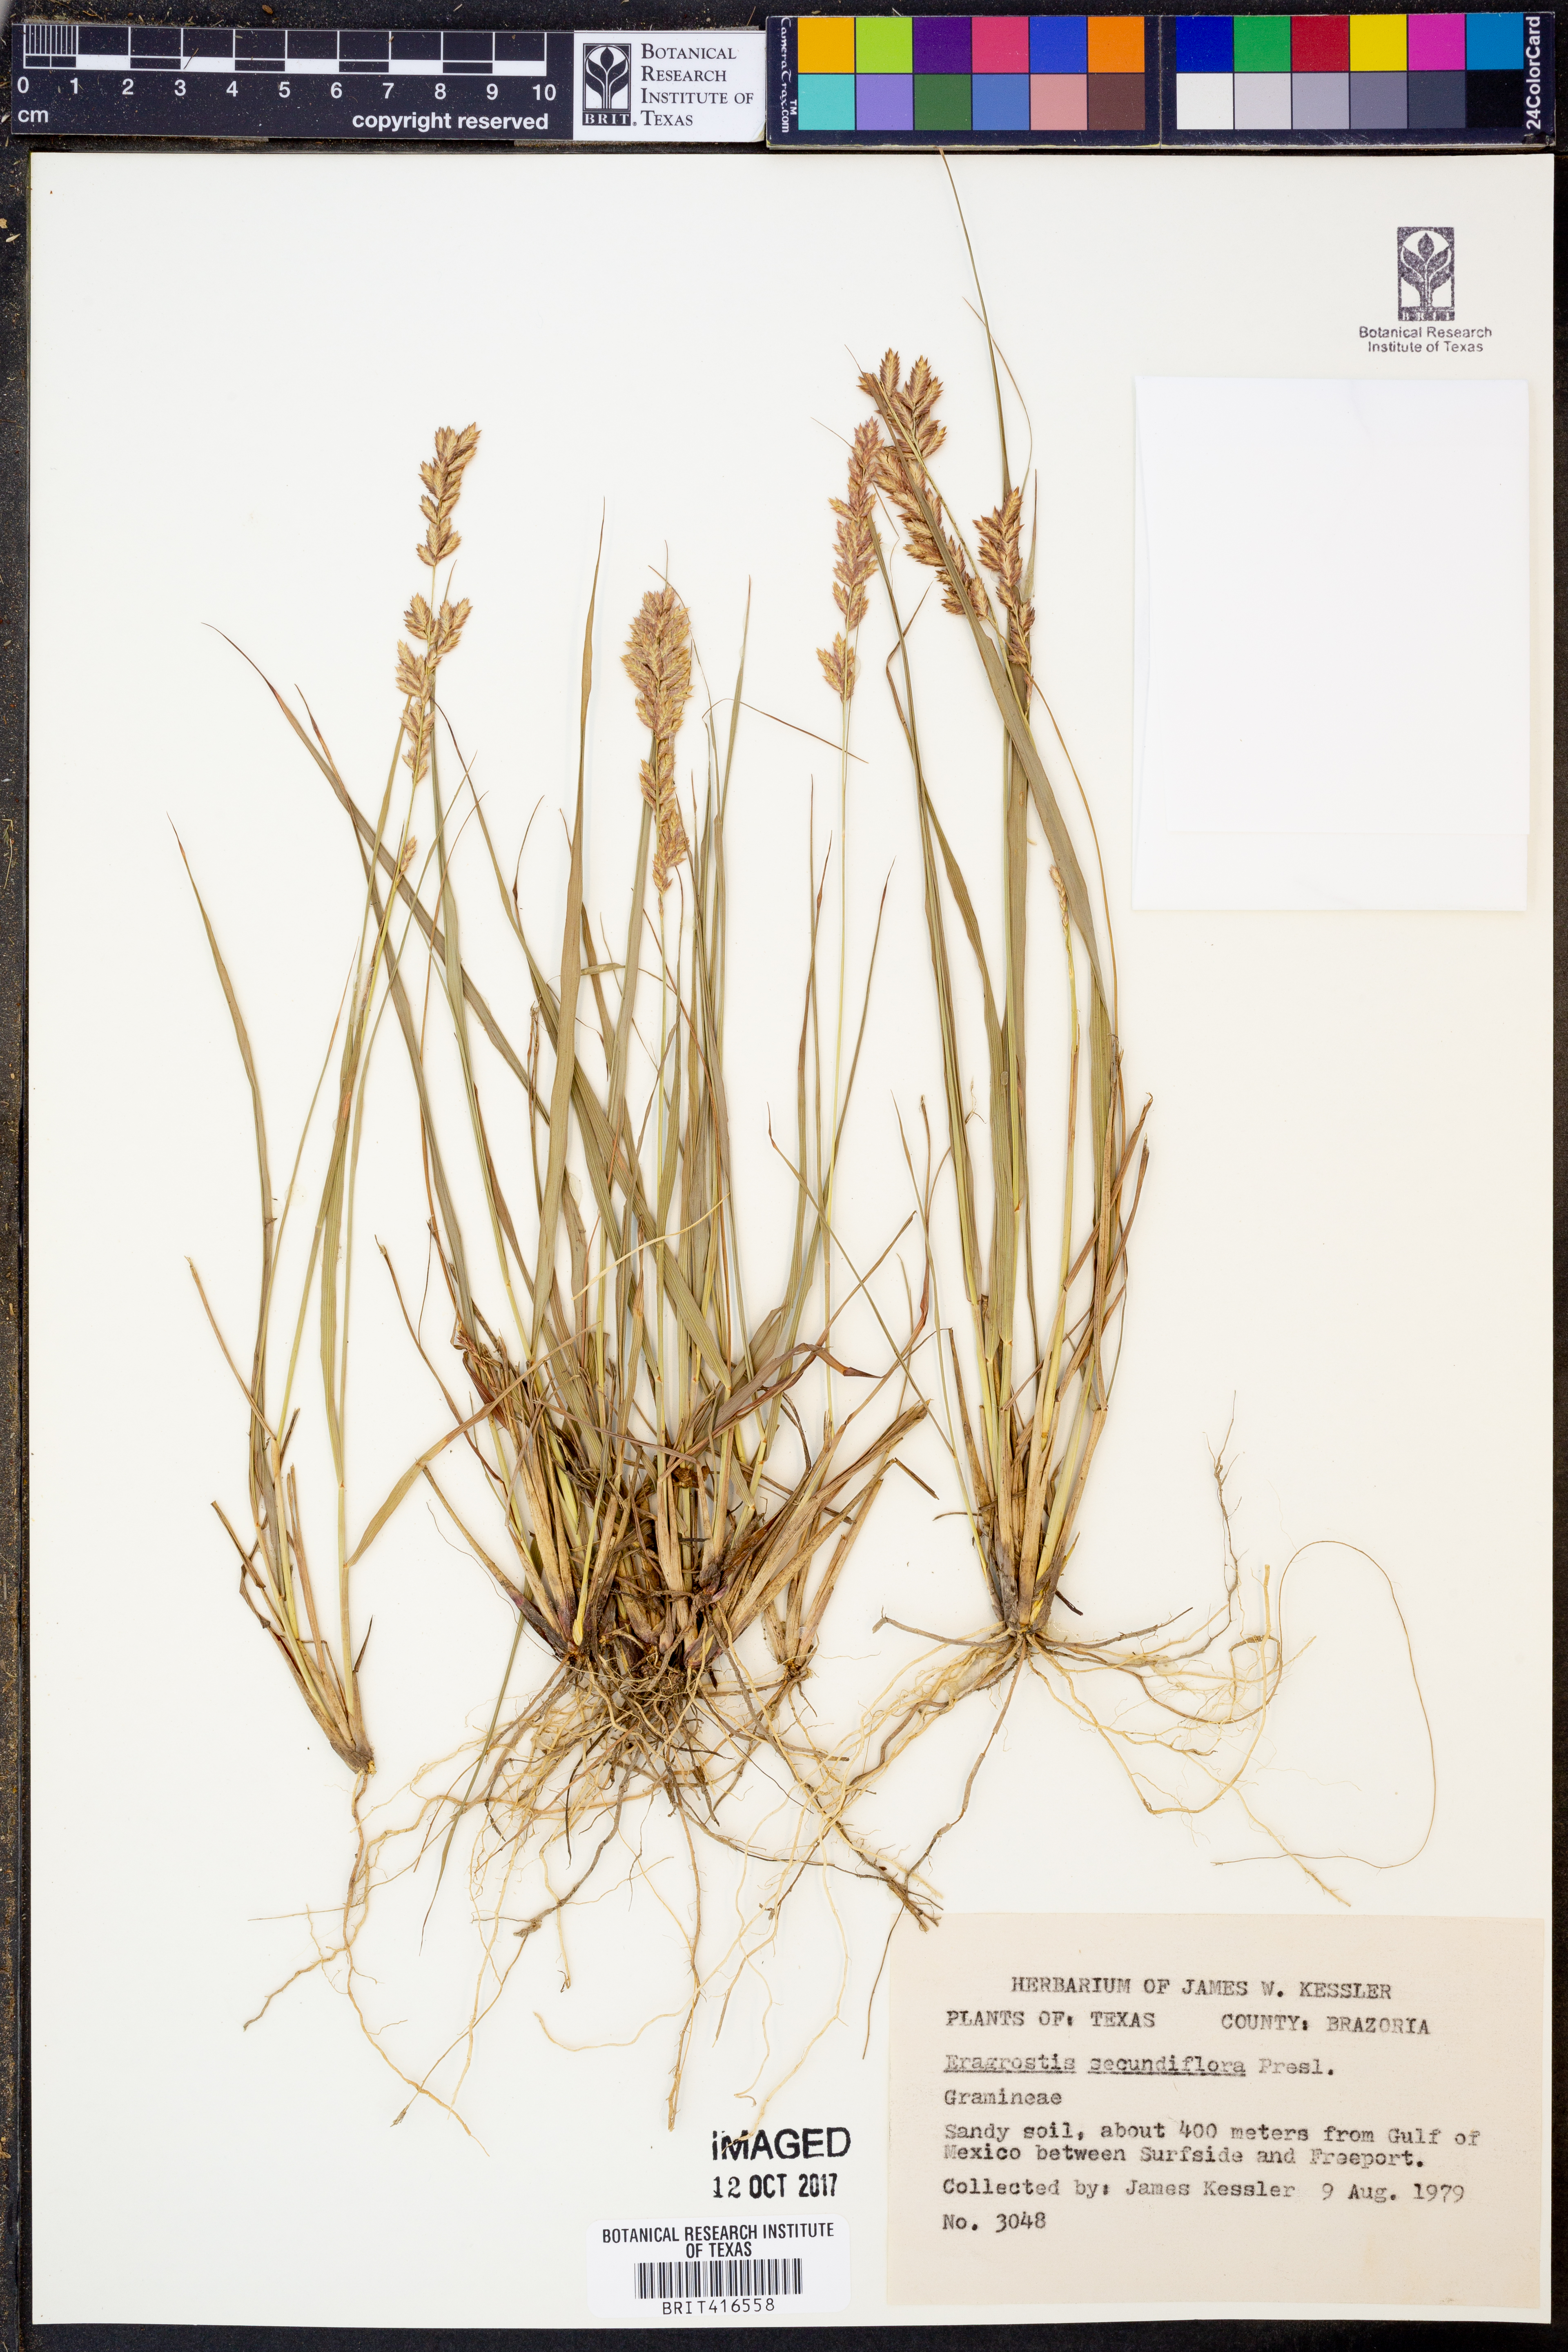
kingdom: Plantae
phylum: Tracheophyta
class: Liliopsida
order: Poales
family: Poaceae
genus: Eragrostis
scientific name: Eragrostis secundiflora
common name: Red love grass
